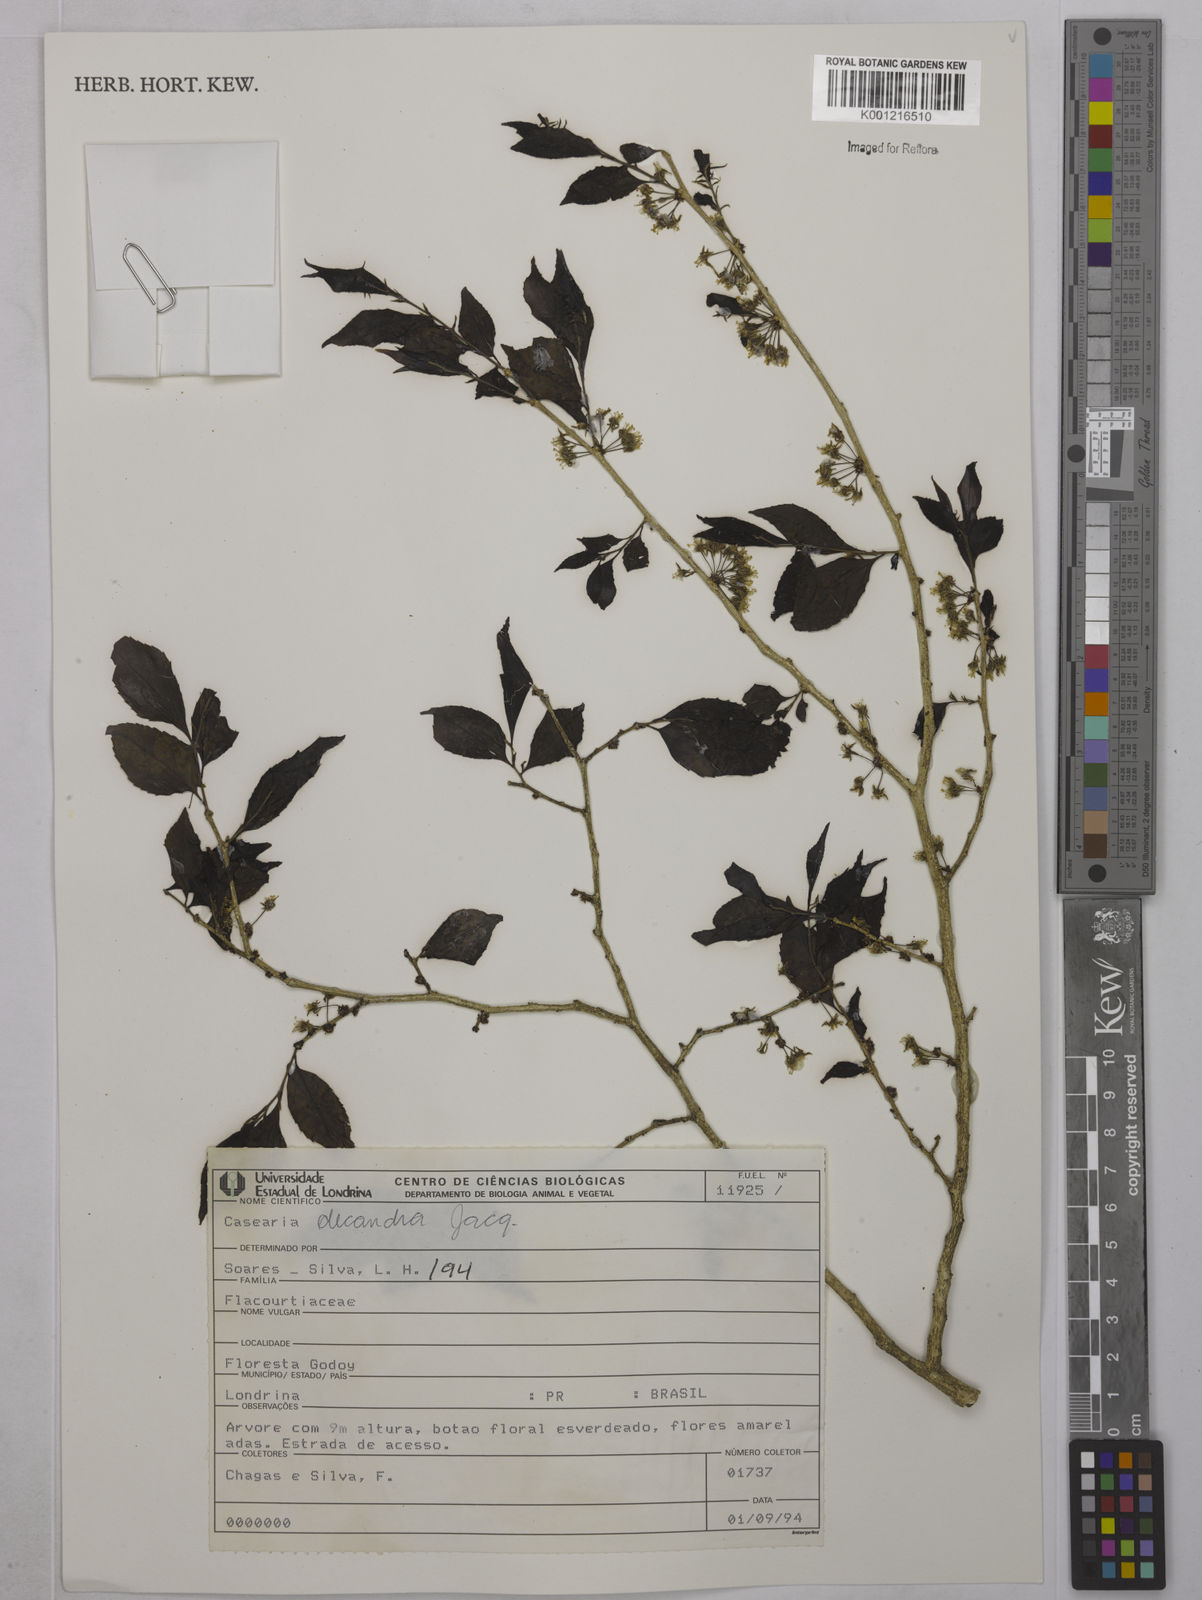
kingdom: Plantae
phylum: Tracheophyta
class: Magnoliopsida
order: Malpighiales
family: Salicaceae
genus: Casearia
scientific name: Casearia decandra
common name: Crack open
